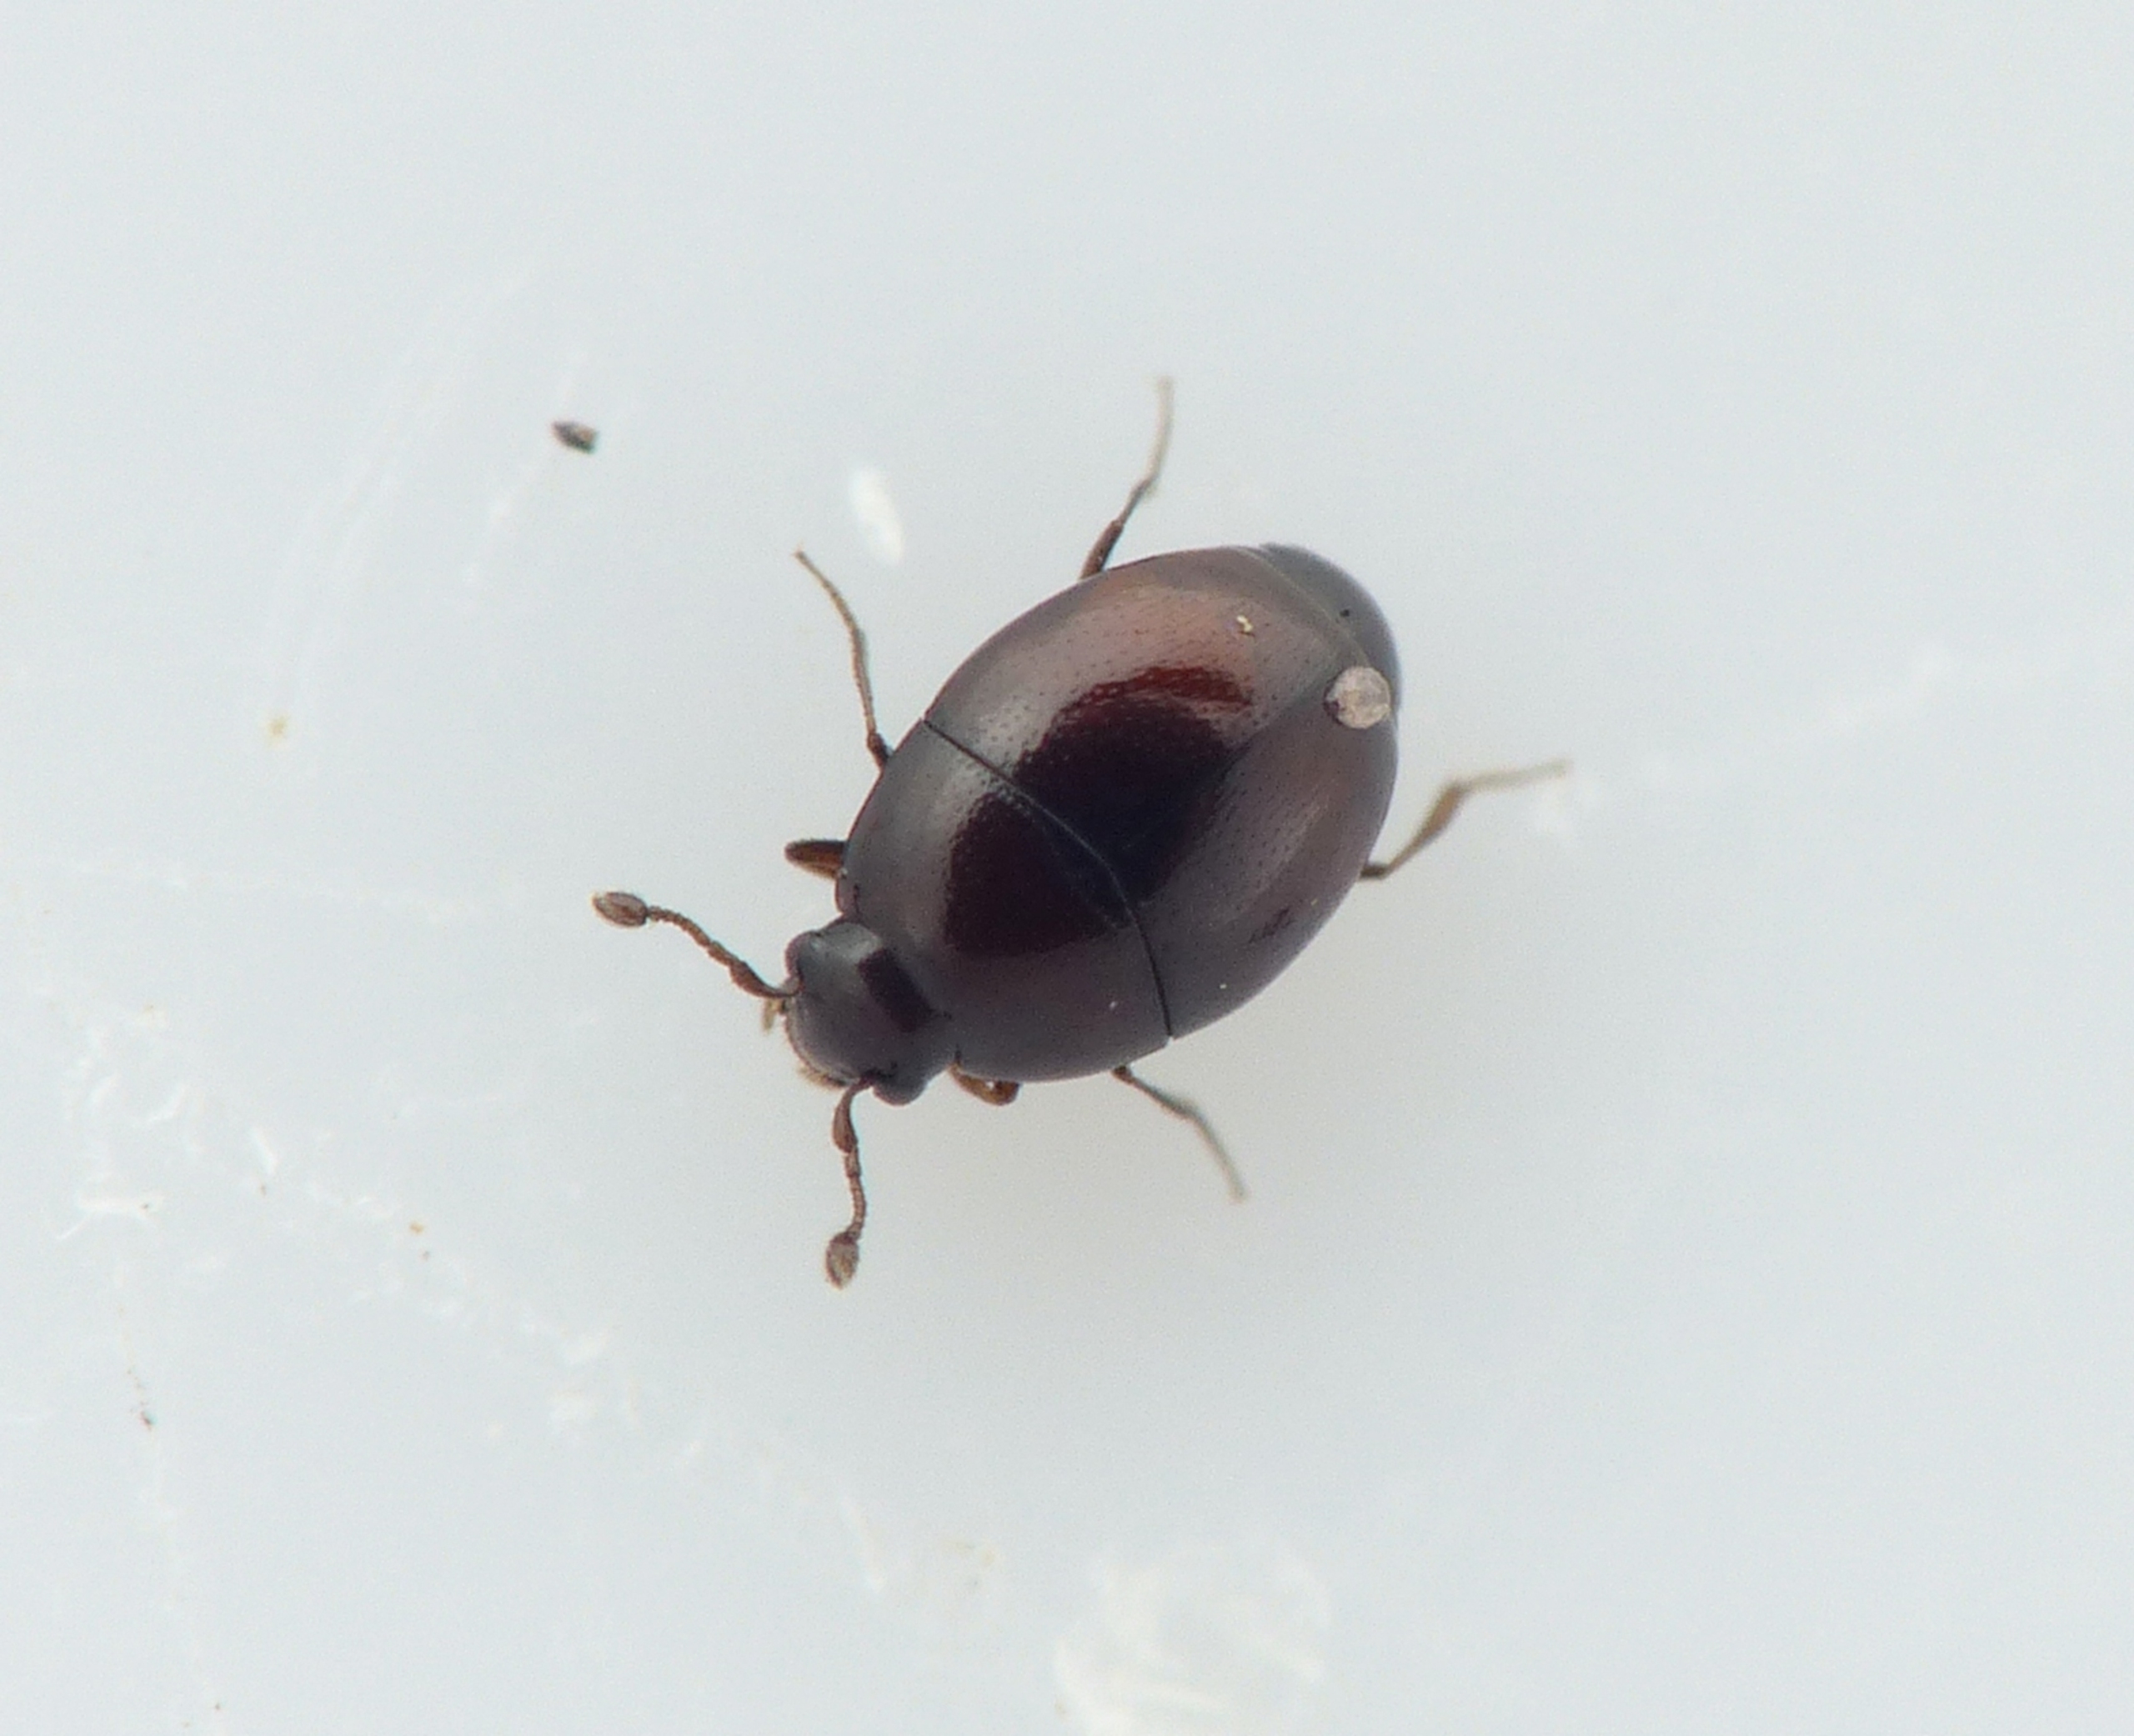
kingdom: Animalia
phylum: Arthropoda
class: Insecta
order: Coleoptera
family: Histeridae
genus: Acritus
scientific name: Acritus nigricornis
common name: Fladtrykket ægstumpbille
